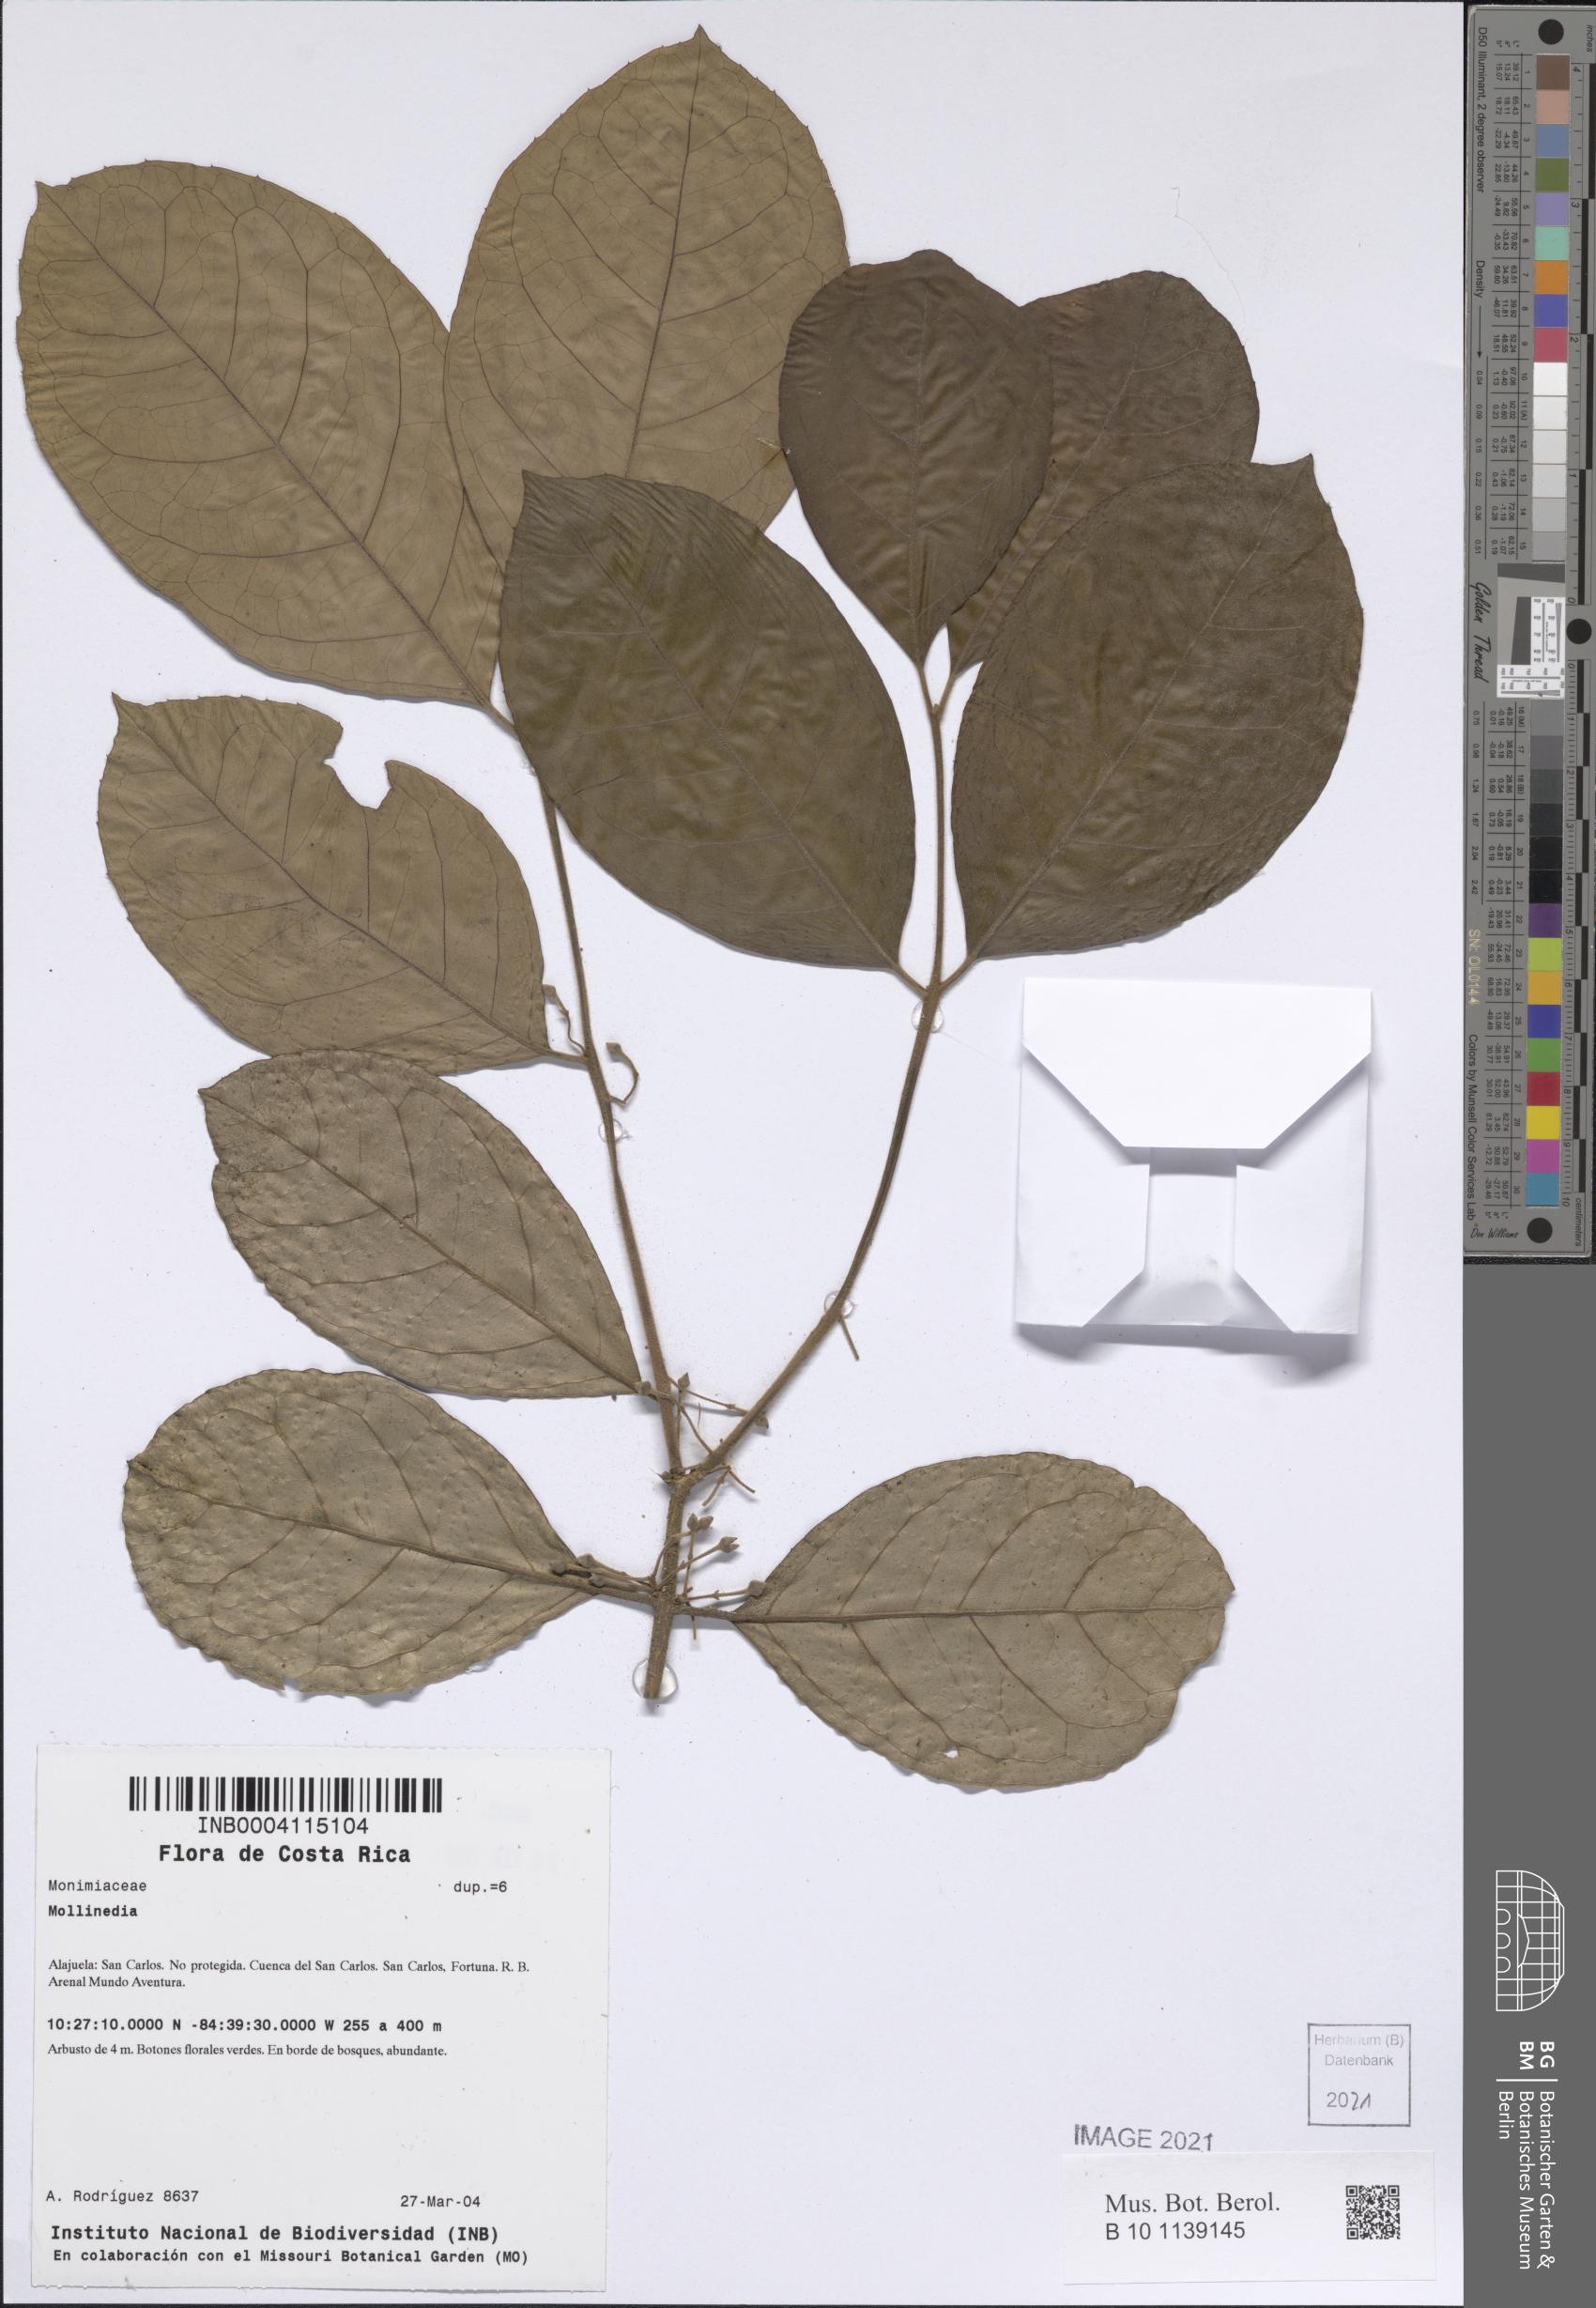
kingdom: Plantae
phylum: Tracheophyta
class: Magnoliopsida
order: Laurales
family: Monimiaceae
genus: Mollinedia
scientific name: Mollinedia
